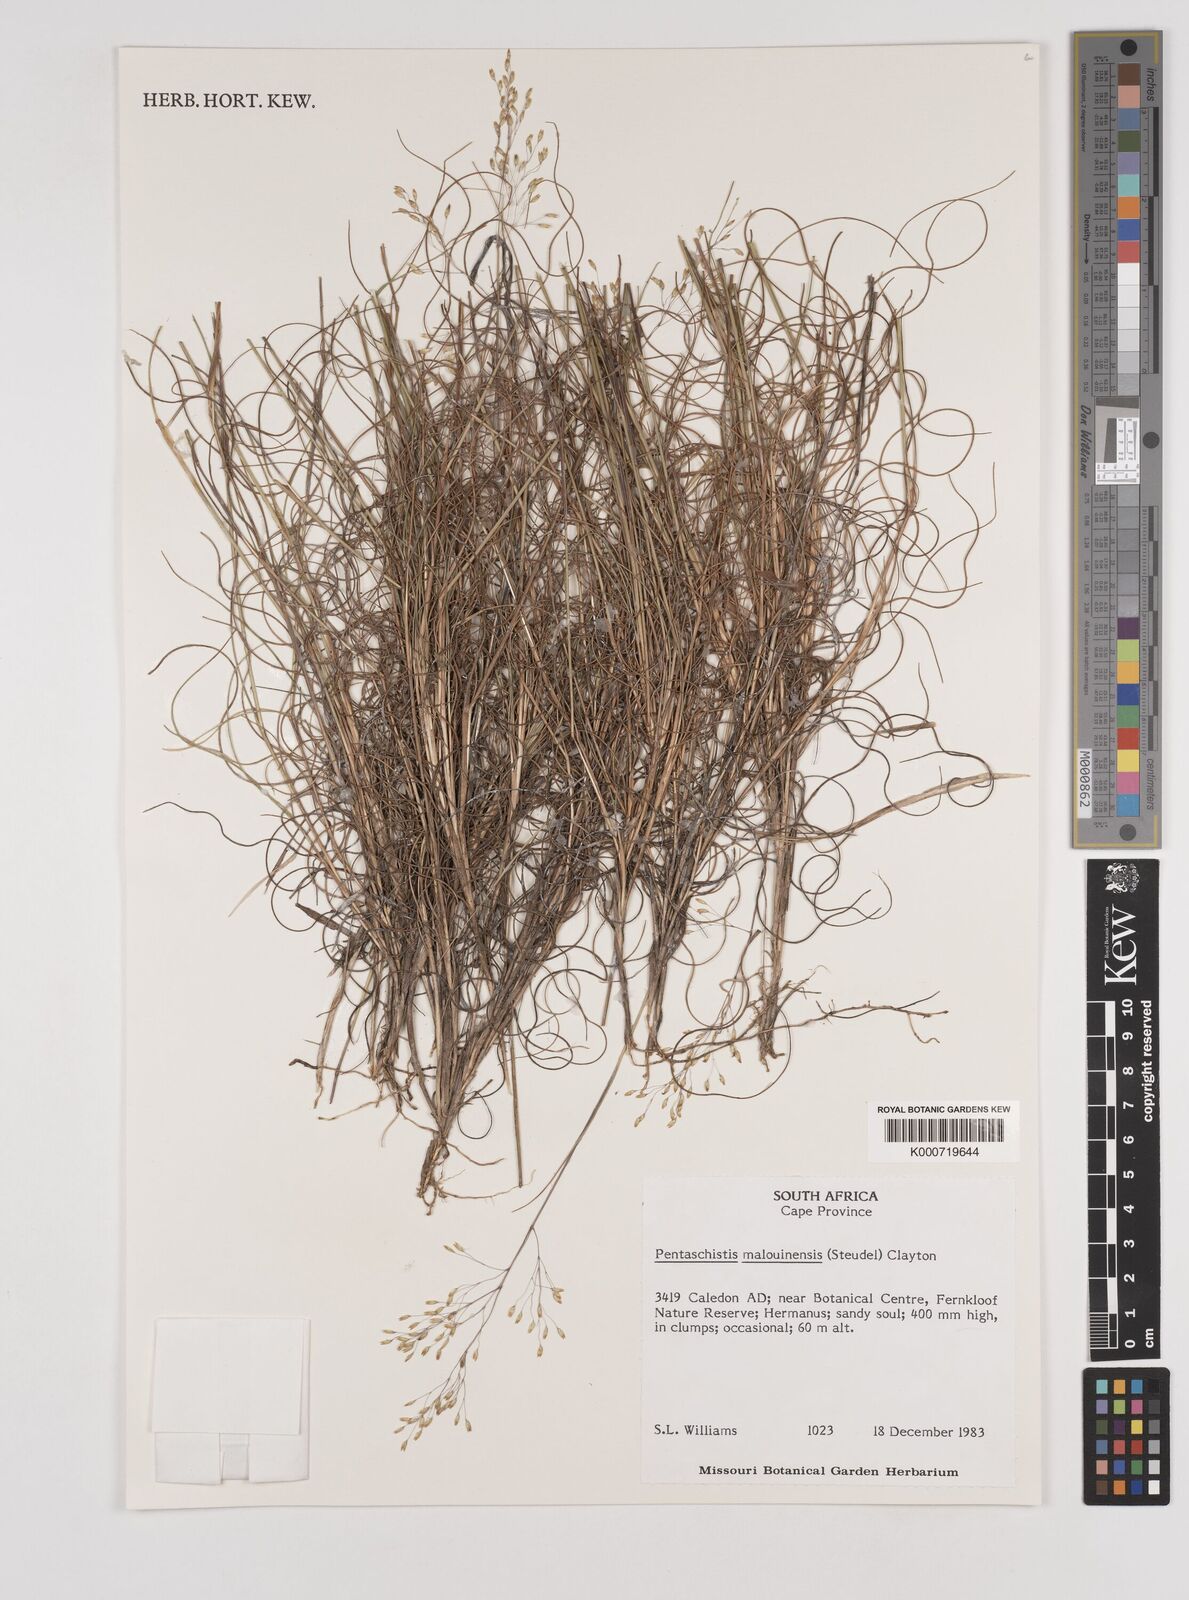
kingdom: Plantae
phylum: Tracheophyta
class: Liliopsida
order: Poales
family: Poaceae
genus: Pentameris
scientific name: Pentameris malouinensis
